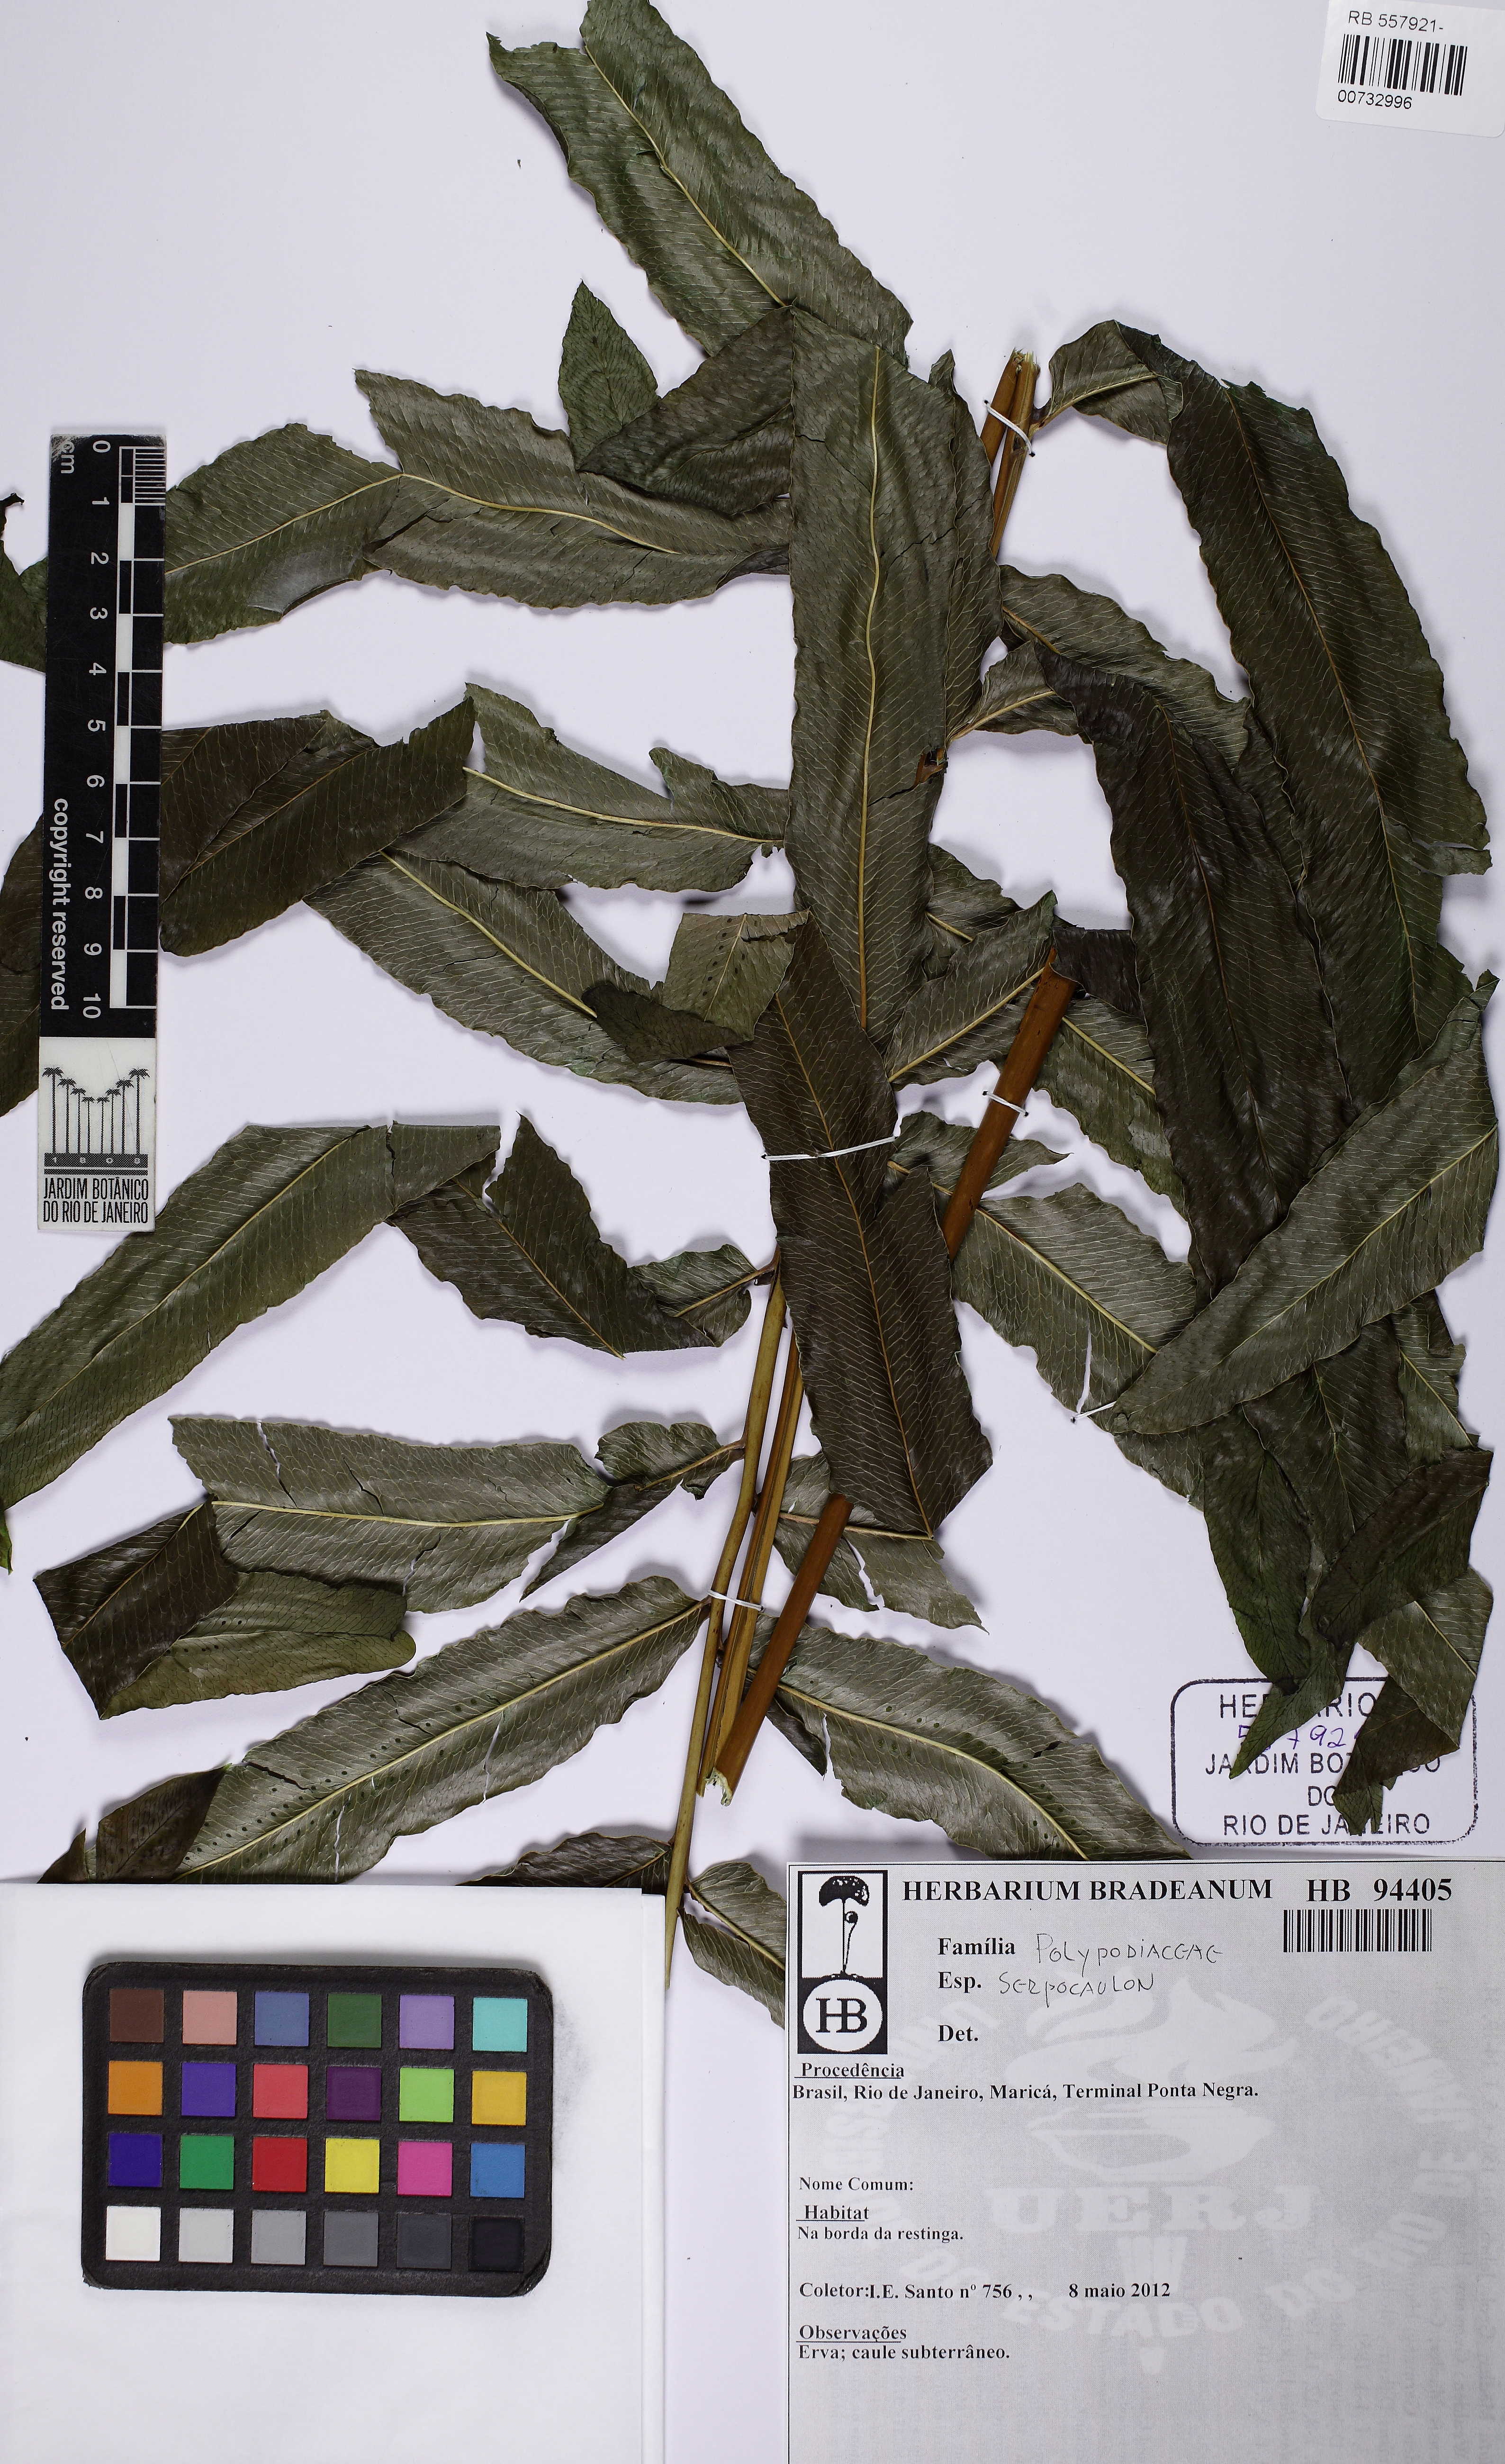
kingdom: Plantae
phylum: Tracheophyta
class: Polypodiopsida
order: Polypodiales
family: Polypodiaceae
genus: Serpocaulon
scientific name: Serpocaulon triseriale
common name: Angle-vein fern
